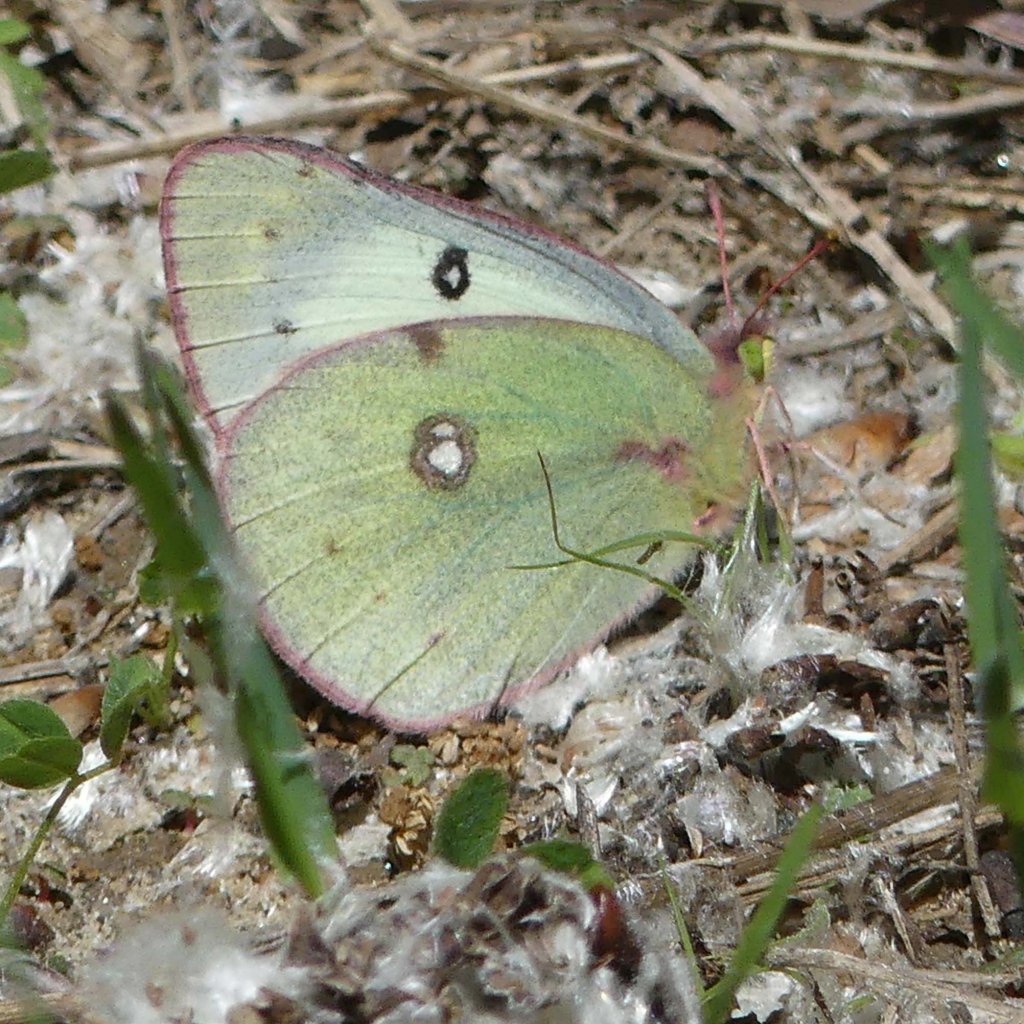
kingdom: Animalia
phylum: Arthropoda
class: Insecta
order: Lepidoptera
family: Pieridae
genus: Colias
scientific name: Colias philodice
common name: Clouded Sulphur
